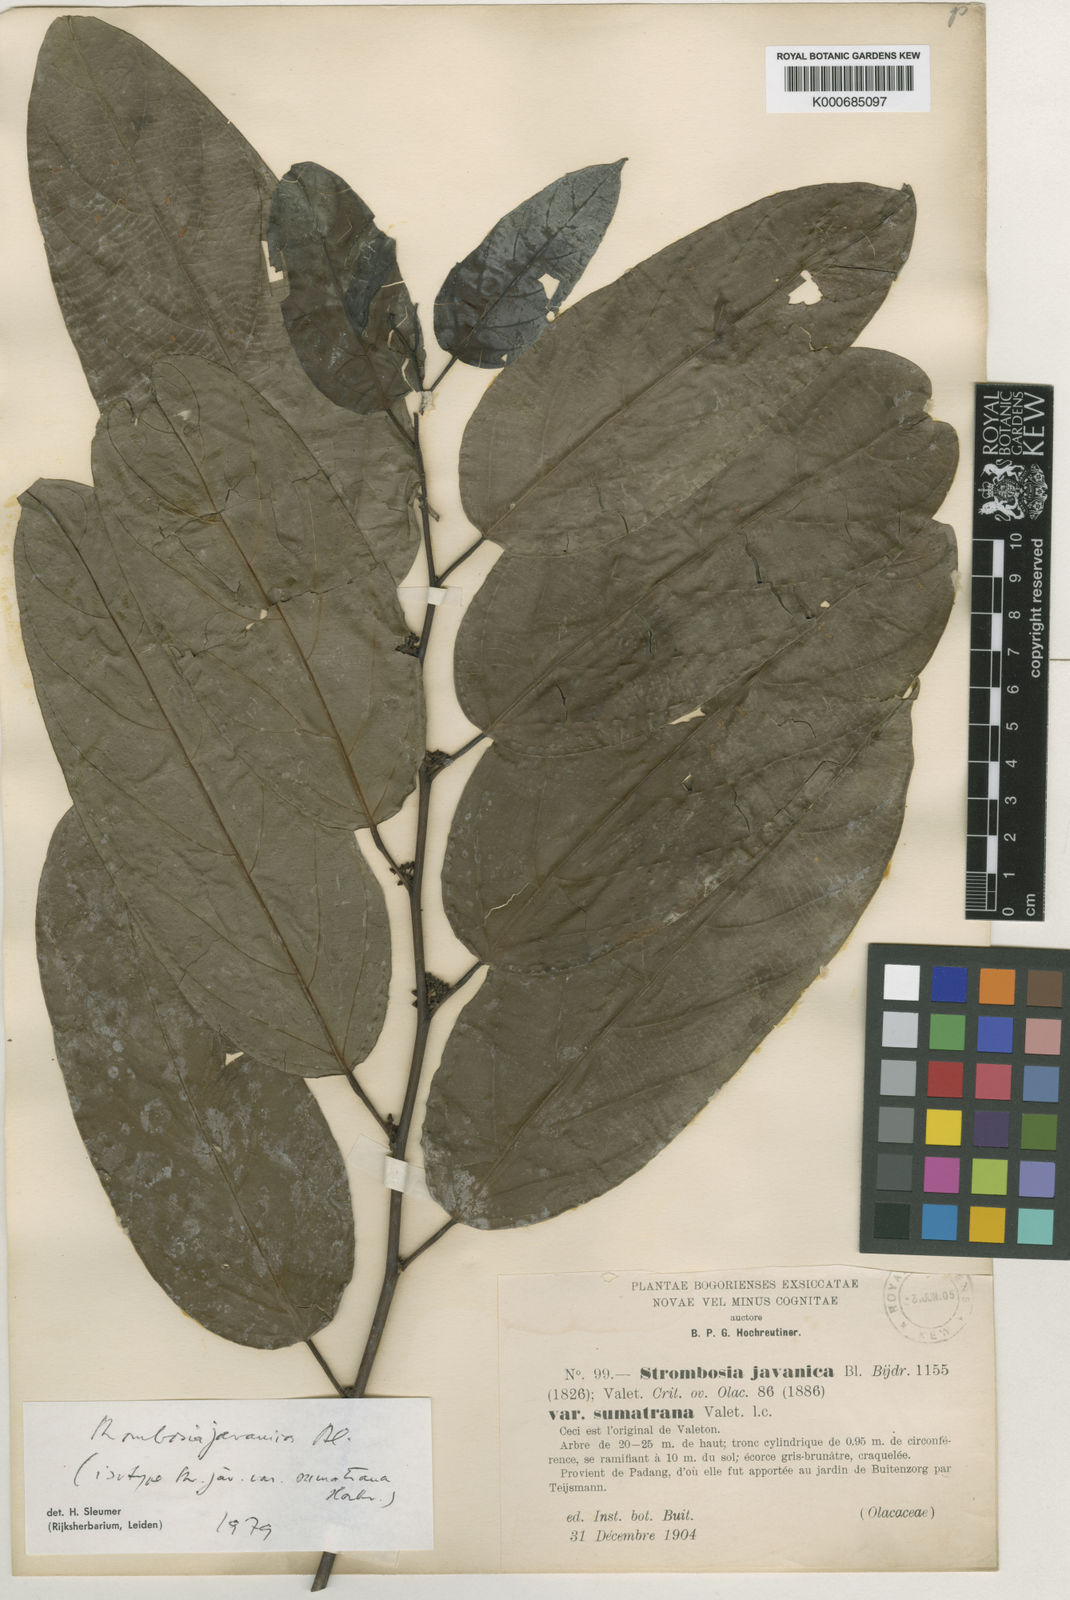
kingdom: Plantae
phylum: Tracheophyta
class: Magnoliopsida
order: Santalales
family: Strombosiaceae
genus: Strombosia
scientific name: Strombosia javanica
